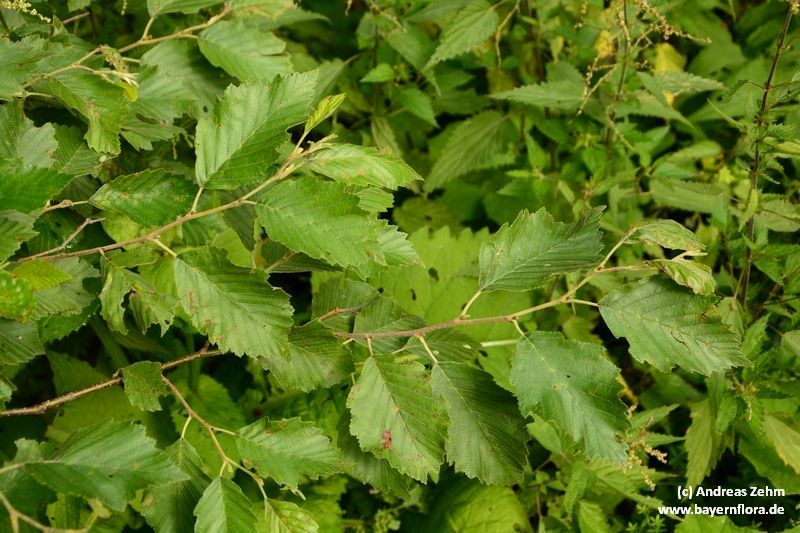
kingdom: Plantae
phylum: Tracheophyta
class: Magnoliopsida
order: Fagales
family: Betulaceae
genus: Alnus
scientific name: Alnus incana
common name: Grey alder
